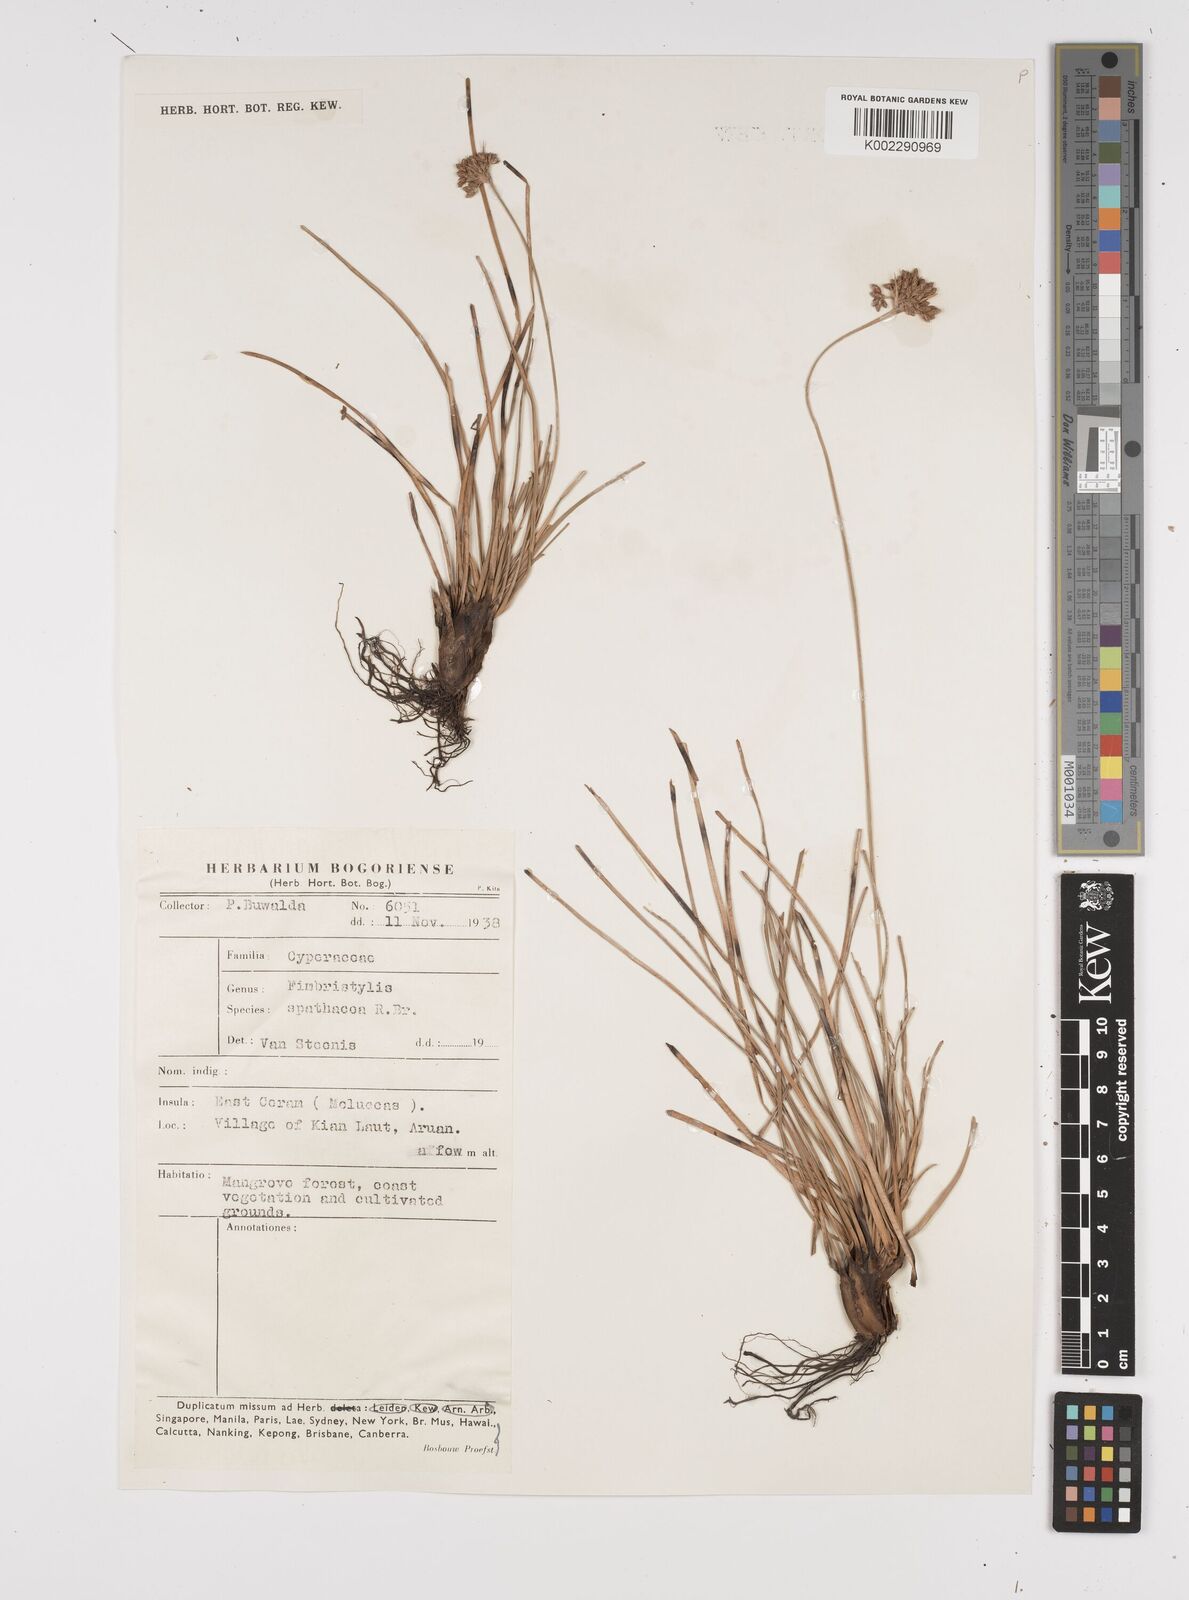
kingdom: Plantae
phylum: Tracheophyta
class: Liliopsida
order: Poales
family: Cyperaceae
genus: Fimbristylis
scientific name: Fimbristylis cymosa
